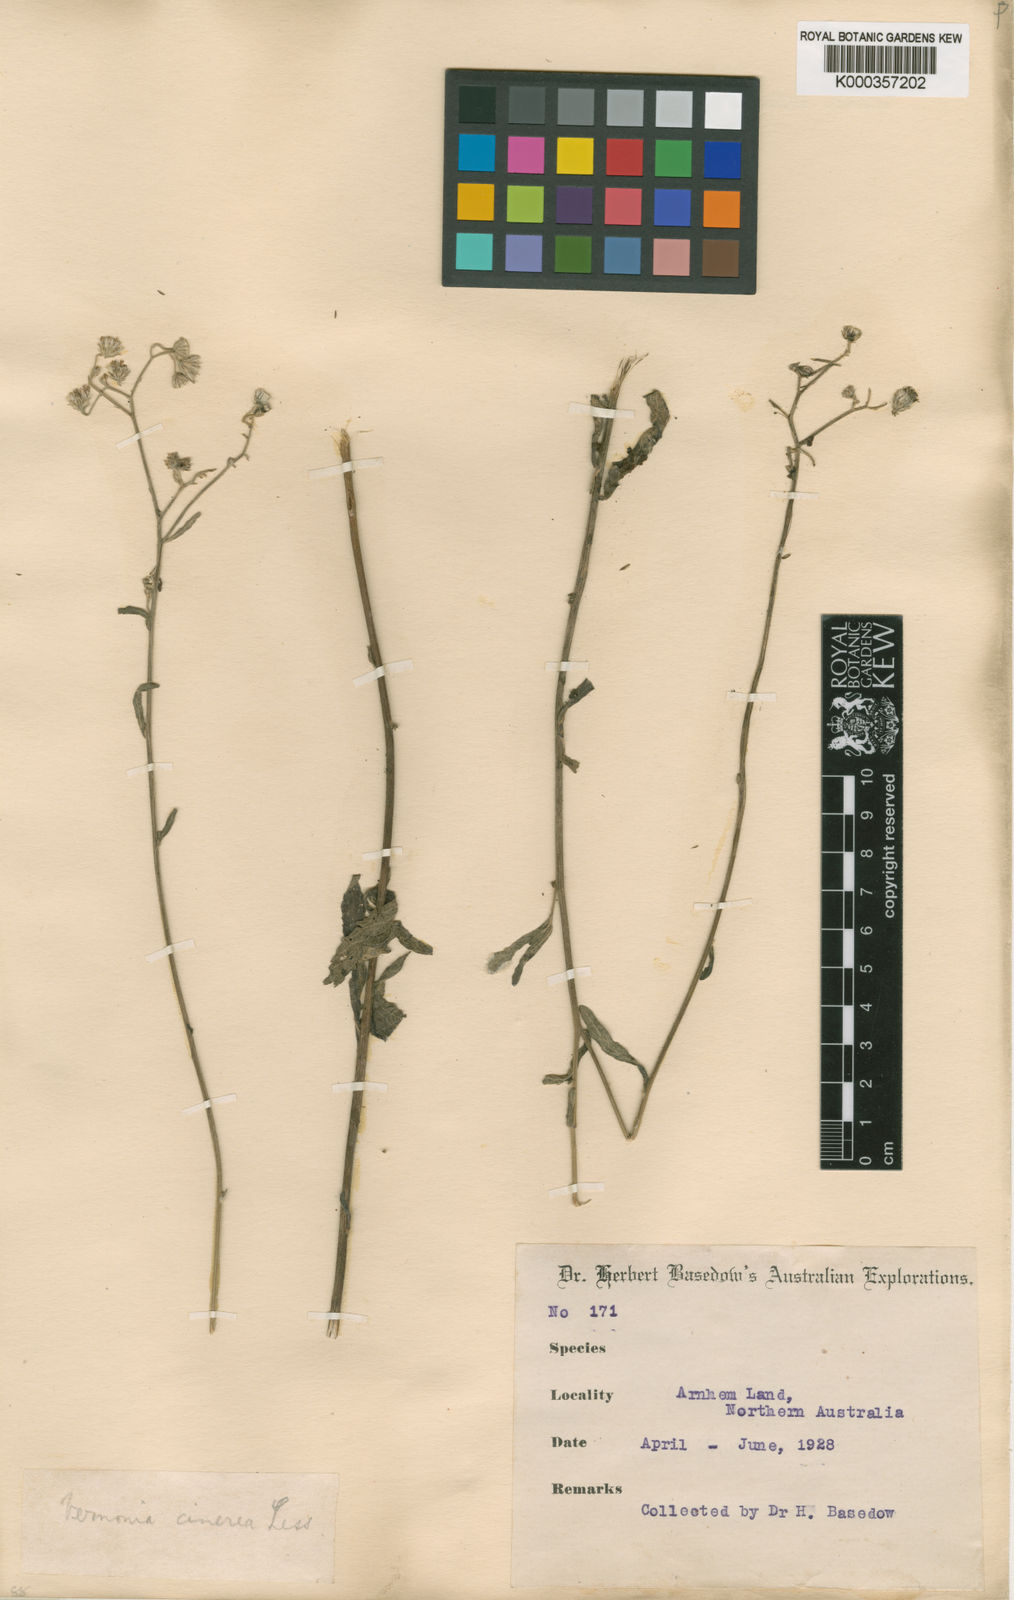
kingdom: Plantae
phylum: Tracheophyta
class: Magnoliopsida
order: Asterales
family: Asteraceae
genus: Cyanthillium
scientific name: Cyanthillium cinereum
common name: Little ironweed
